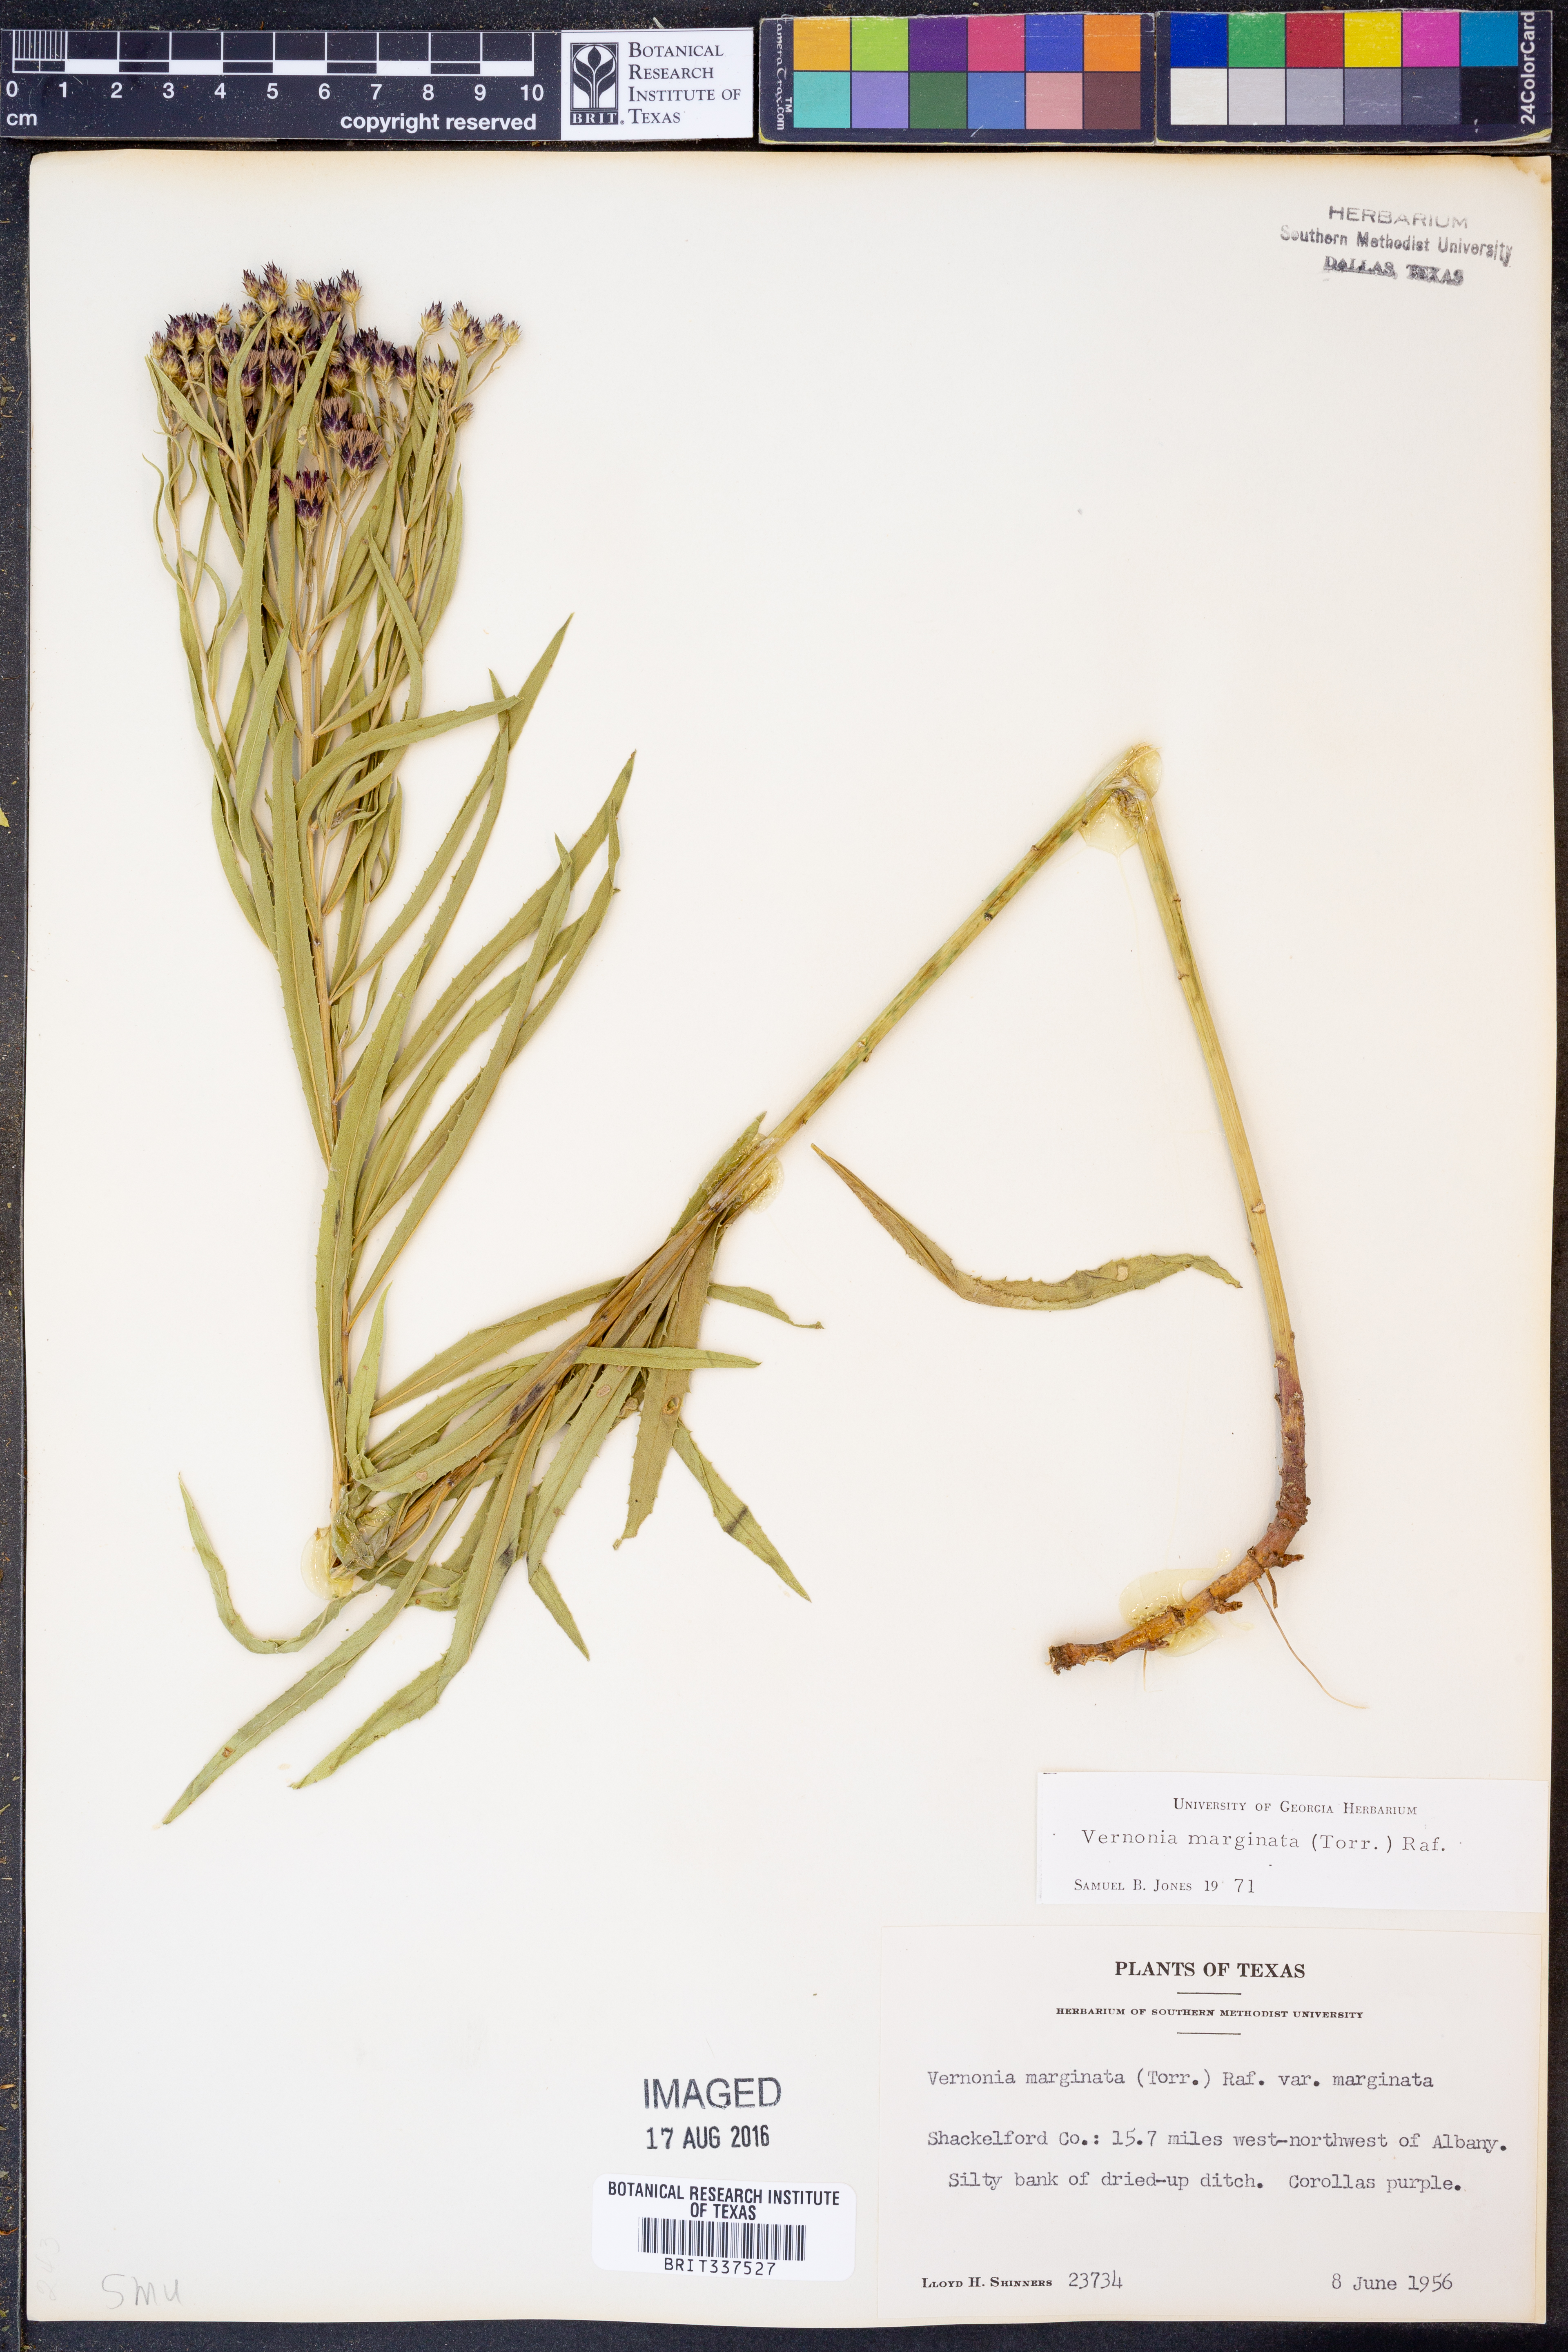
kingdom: Plantae
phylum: Tracheophyta
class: Magnoliopsida
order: Asterales
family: Asteraceae
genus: Vernonia
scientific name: Vernonia marginata
